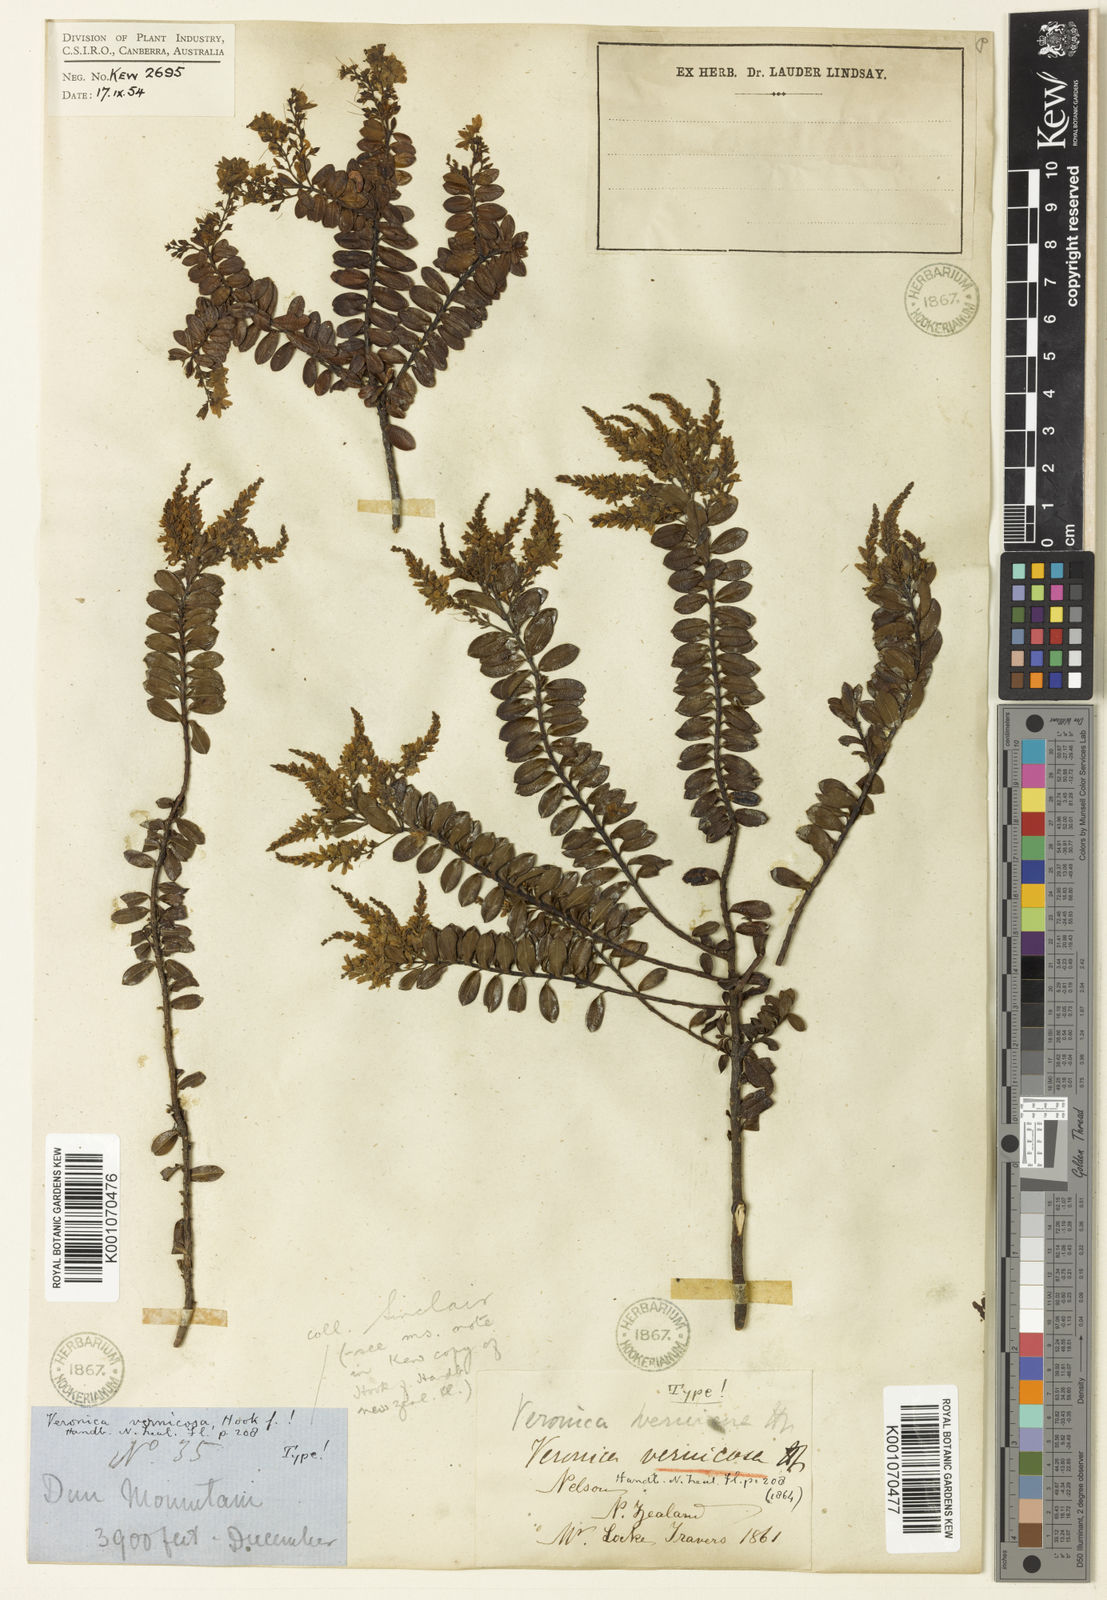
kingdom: Plantae
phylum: Tracheophyta
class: Magnoliopsida
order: Lamiales
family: Plantaginaceae
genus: Veronica
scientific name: Veronica vernicosa
